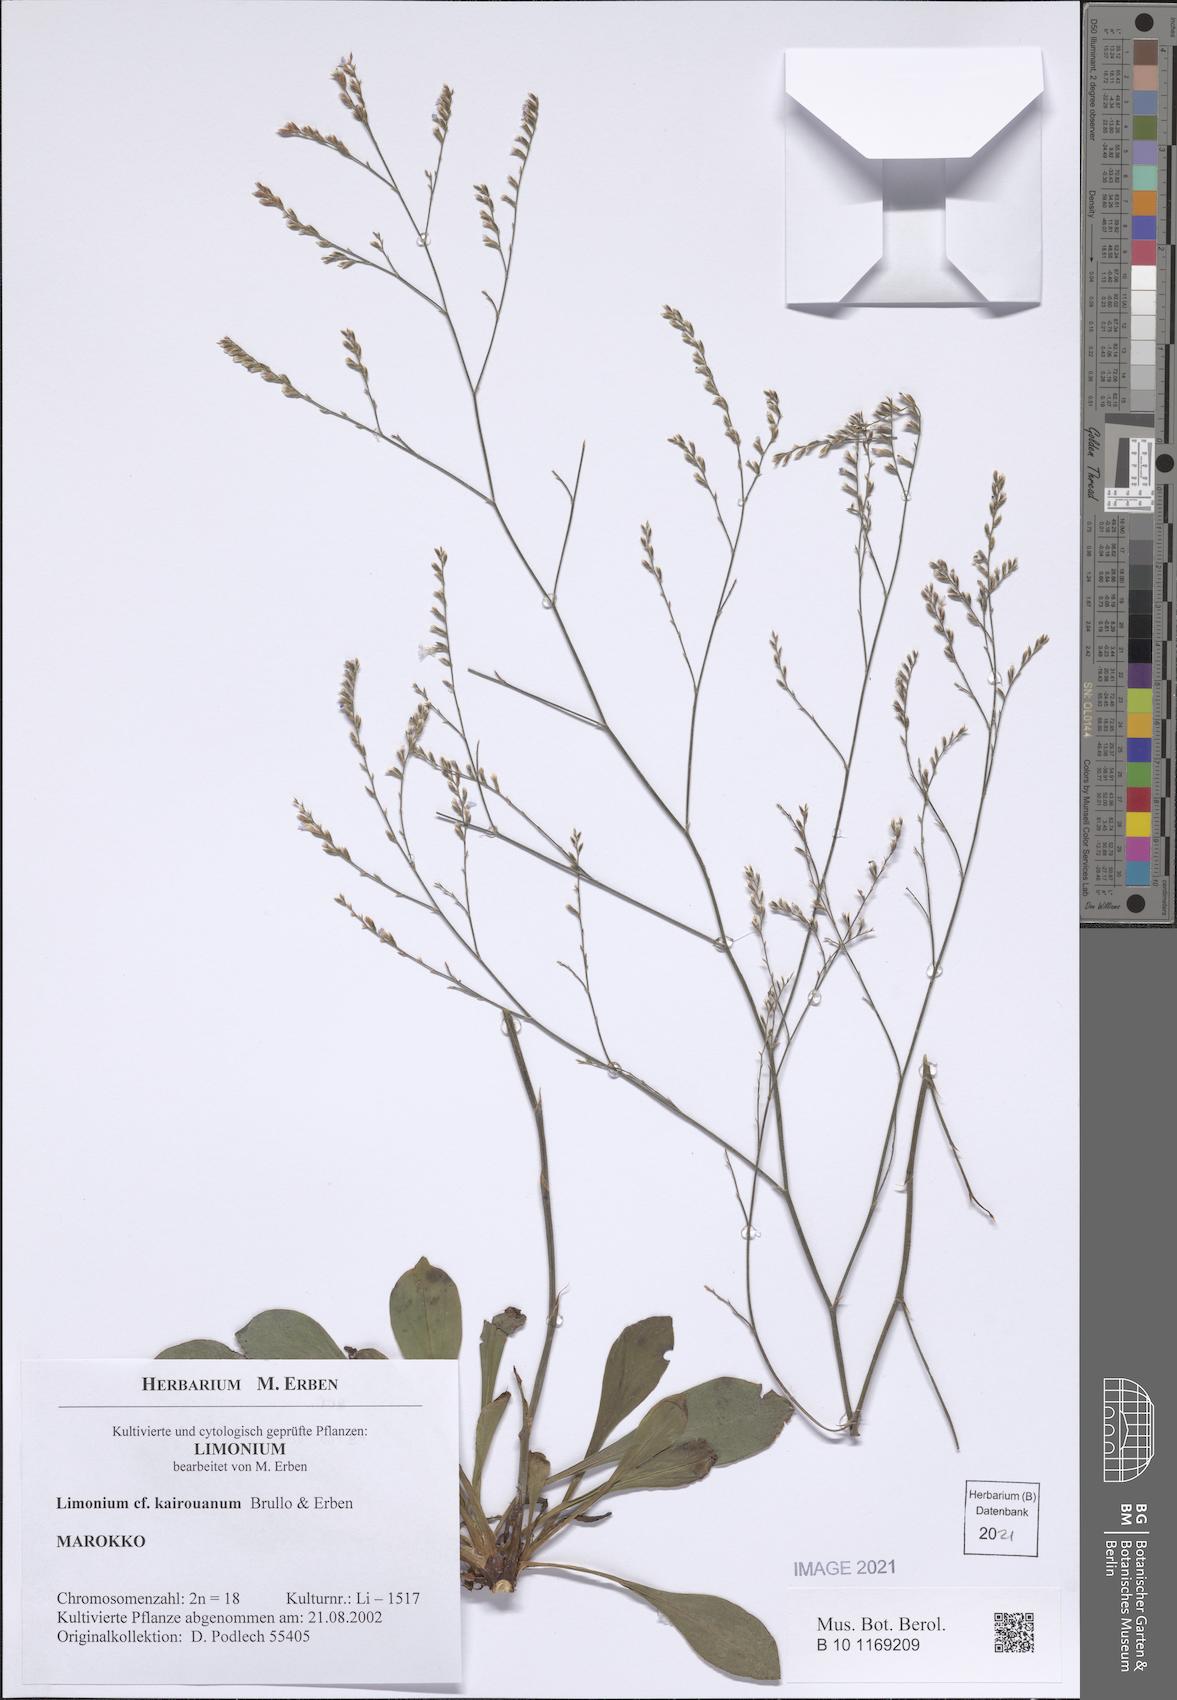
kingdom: Plantae
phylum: Tracheophyta
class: Magnoliopsida
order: Caryophyllales
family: Plumbaginaceae
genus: Limonium
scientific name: Limonium kairouanum
